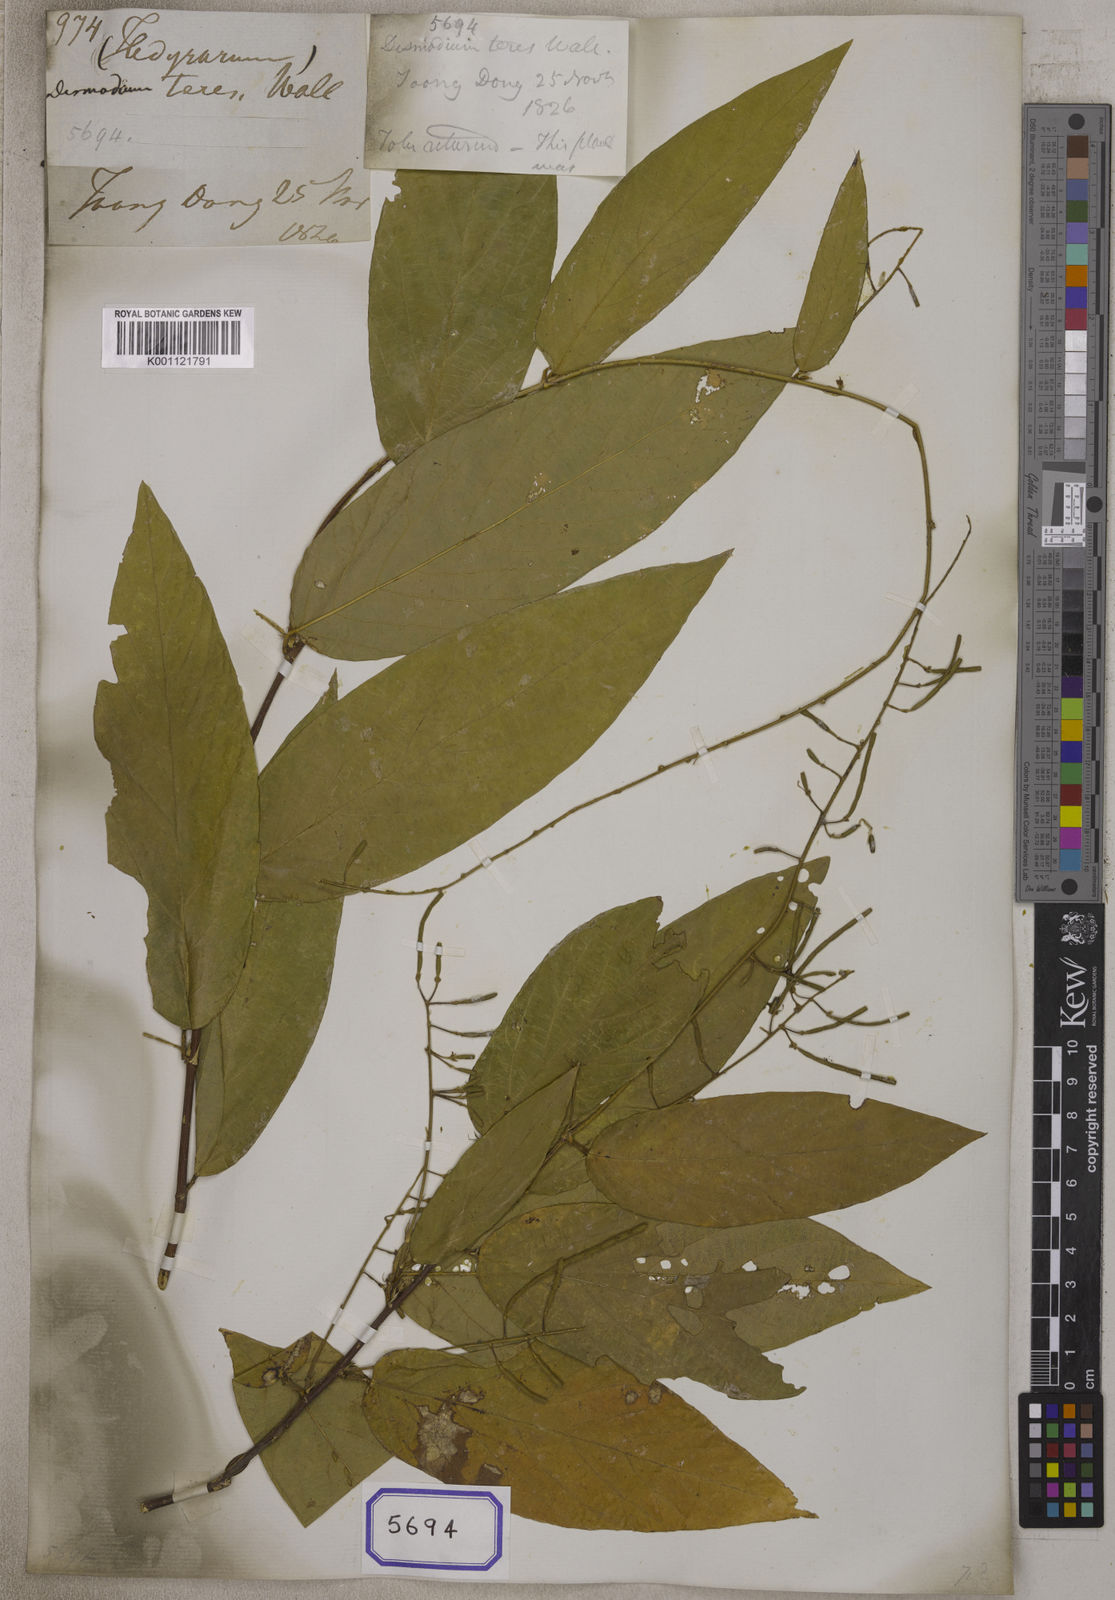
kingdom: Plantae
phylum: Tracheophyta
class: Magnoliopsida
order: Fabales
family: Fabaceae
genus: Sohmaea
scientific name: Sohmaea teres
